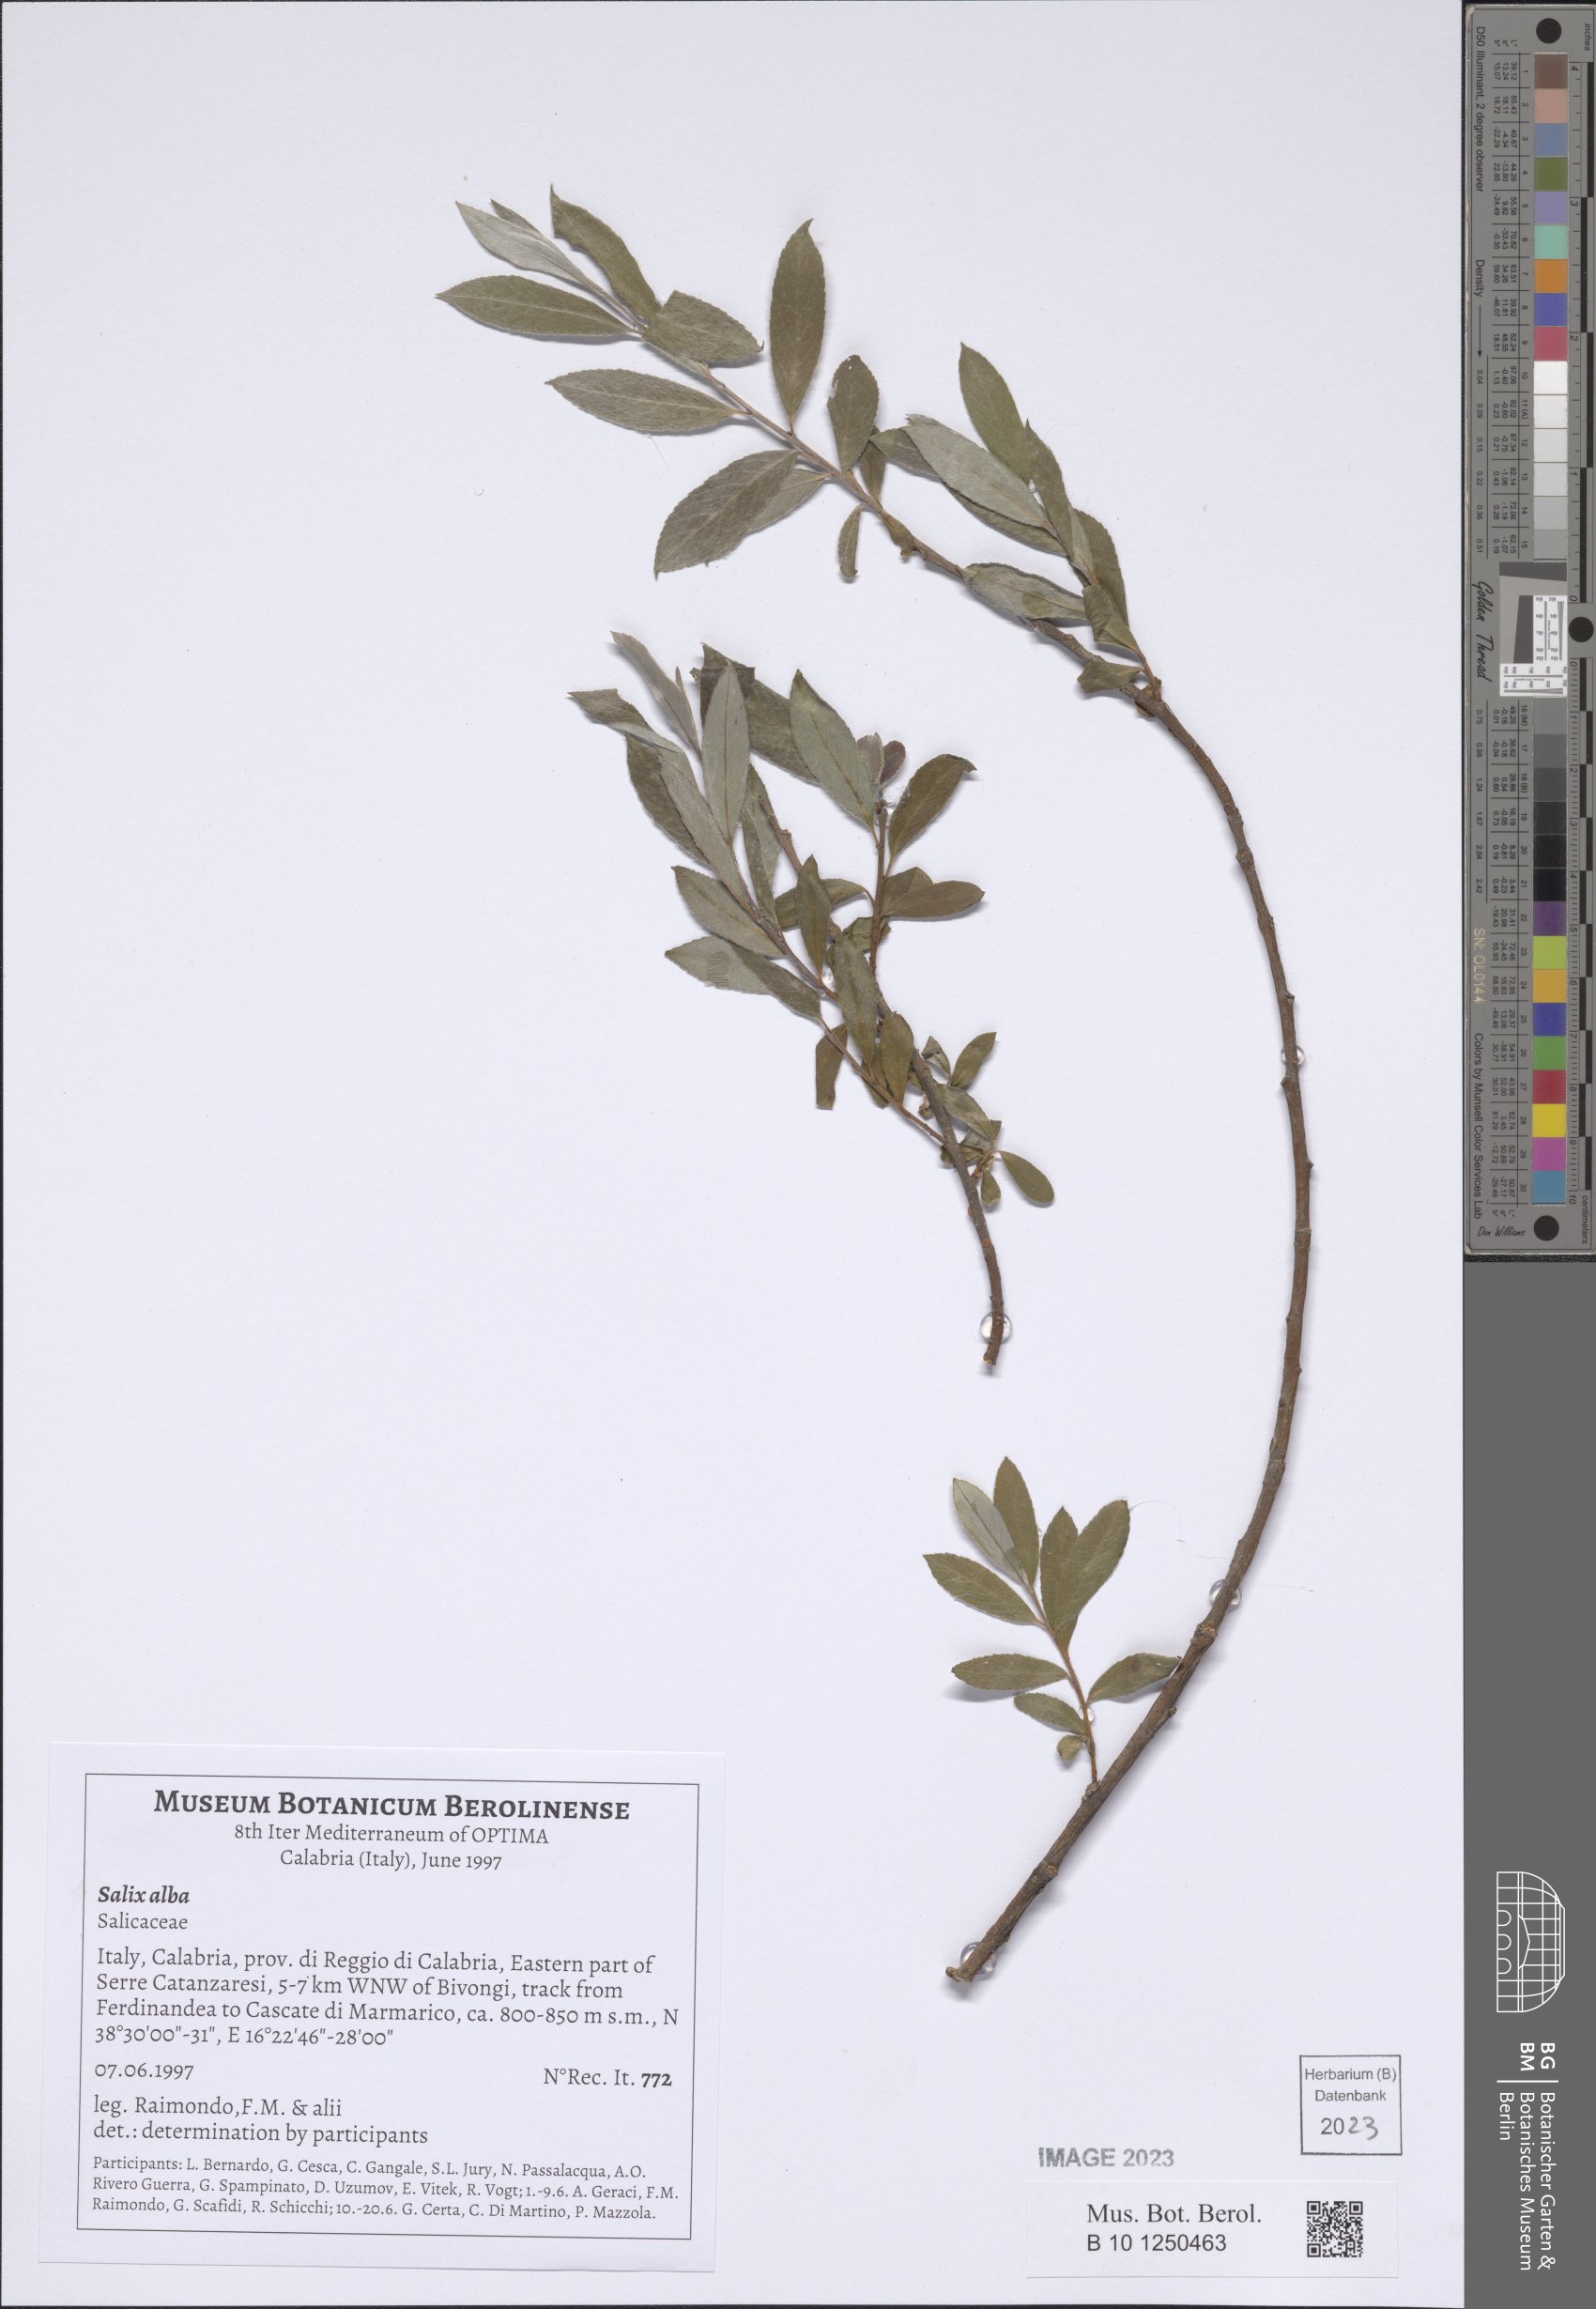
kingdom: Plantae
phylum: Tracheophyta
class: Magnoliopsida
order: Malpighiales
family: Salicaceae
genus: Salix
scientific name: Salix alba
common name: White willow
